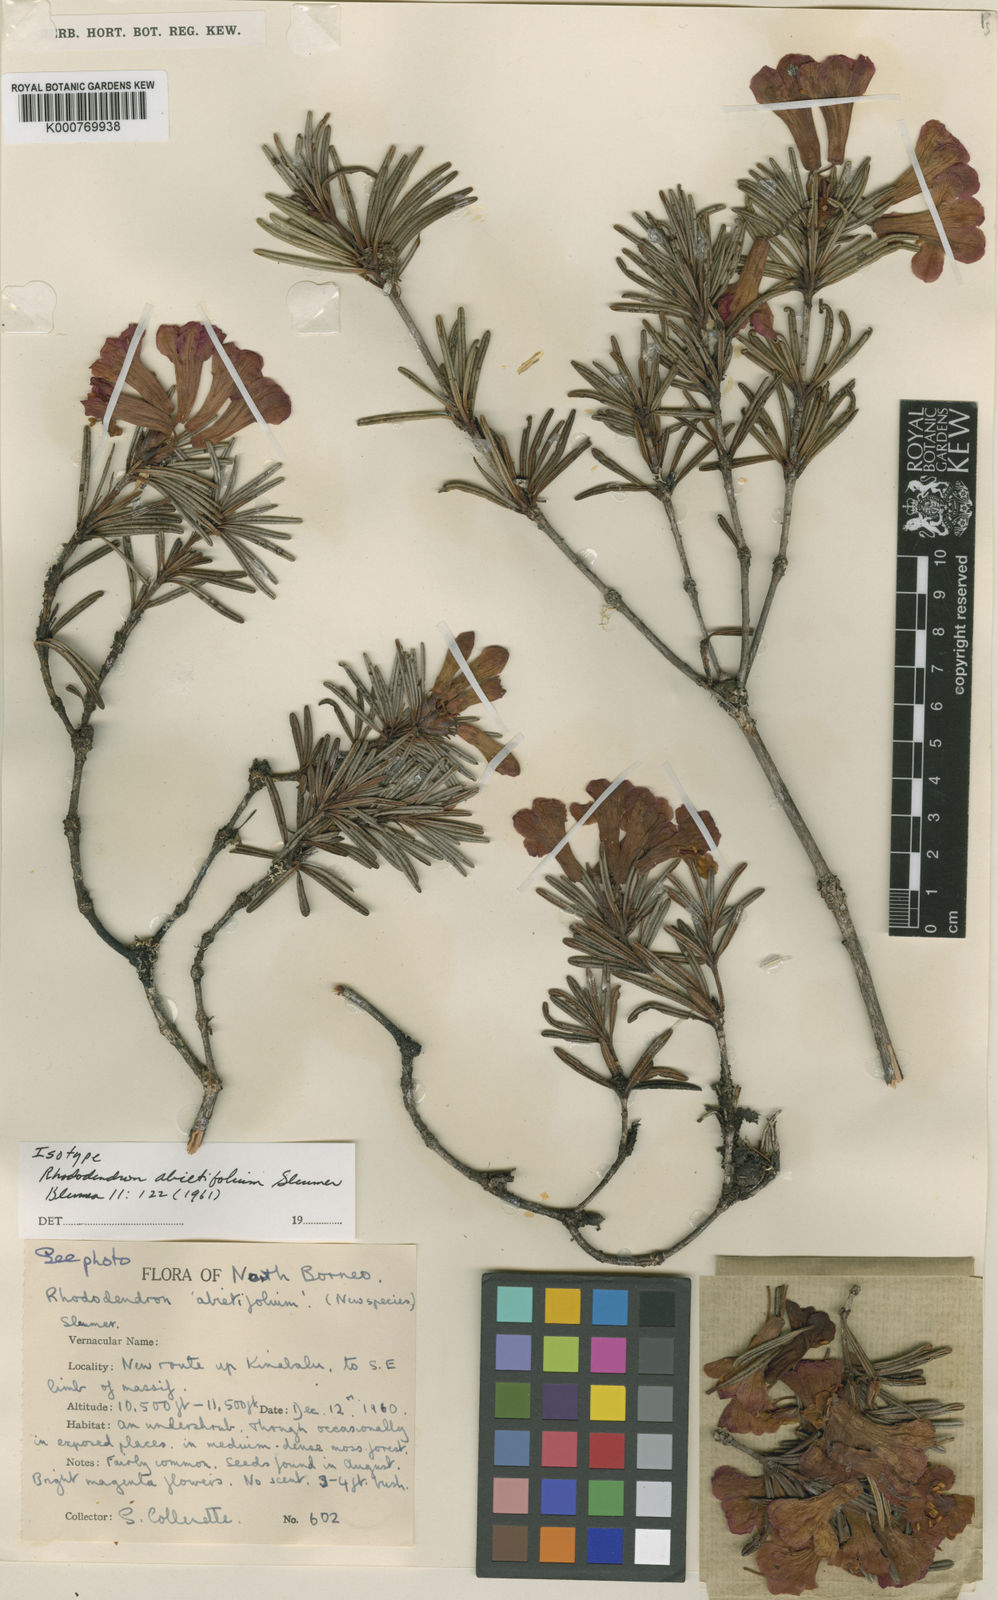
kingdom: Plantae
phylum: Tracheophyta
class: Magnoliopsida
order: Ericales
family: Ericaceae
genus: Rhododendron
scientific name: Rhododendron abietifolium
